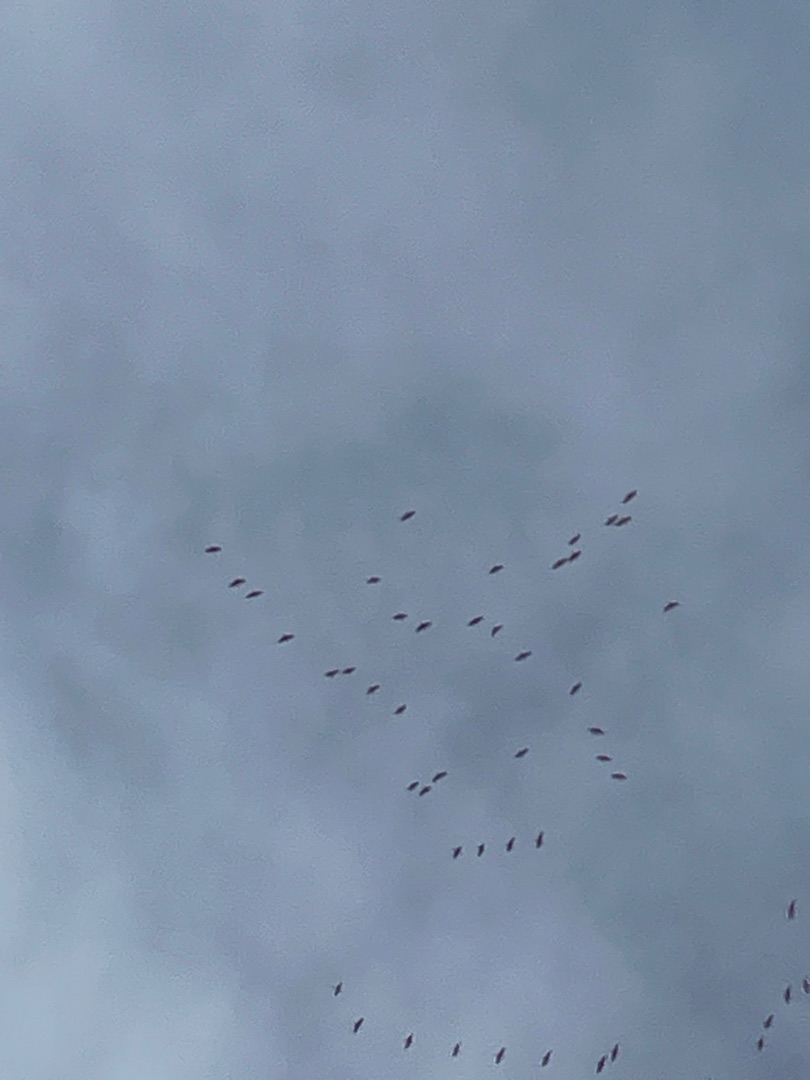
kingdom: Animalia
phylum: Chordata
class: Aves
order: Gruiformes
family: Gruidae
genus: Grus
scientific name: Grus grus
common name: Trane
